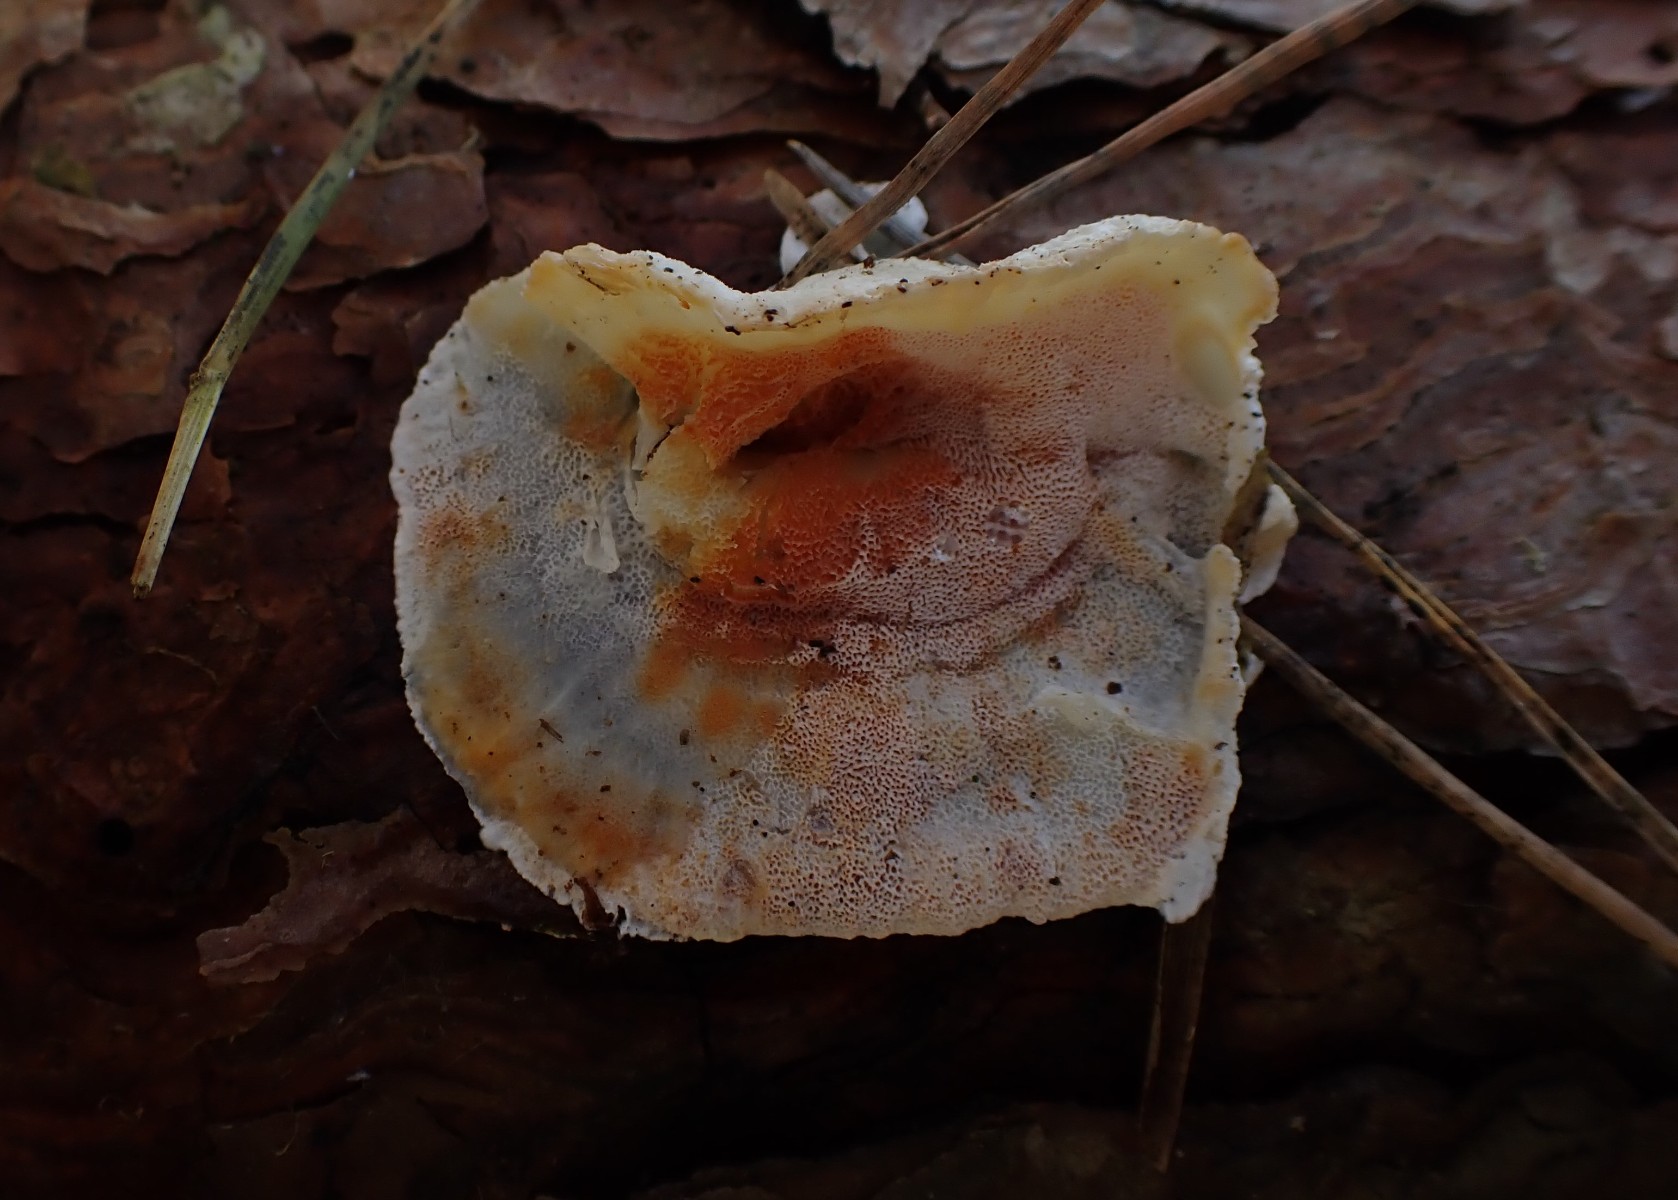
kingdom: Fungi
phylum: Basidiomycota
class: Agaricomycetes
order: Polyporales
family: Incrustoporiaceae
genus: Skeletocutis
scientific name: Skeletocutis amorpha
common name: orange krystalporesvamp
